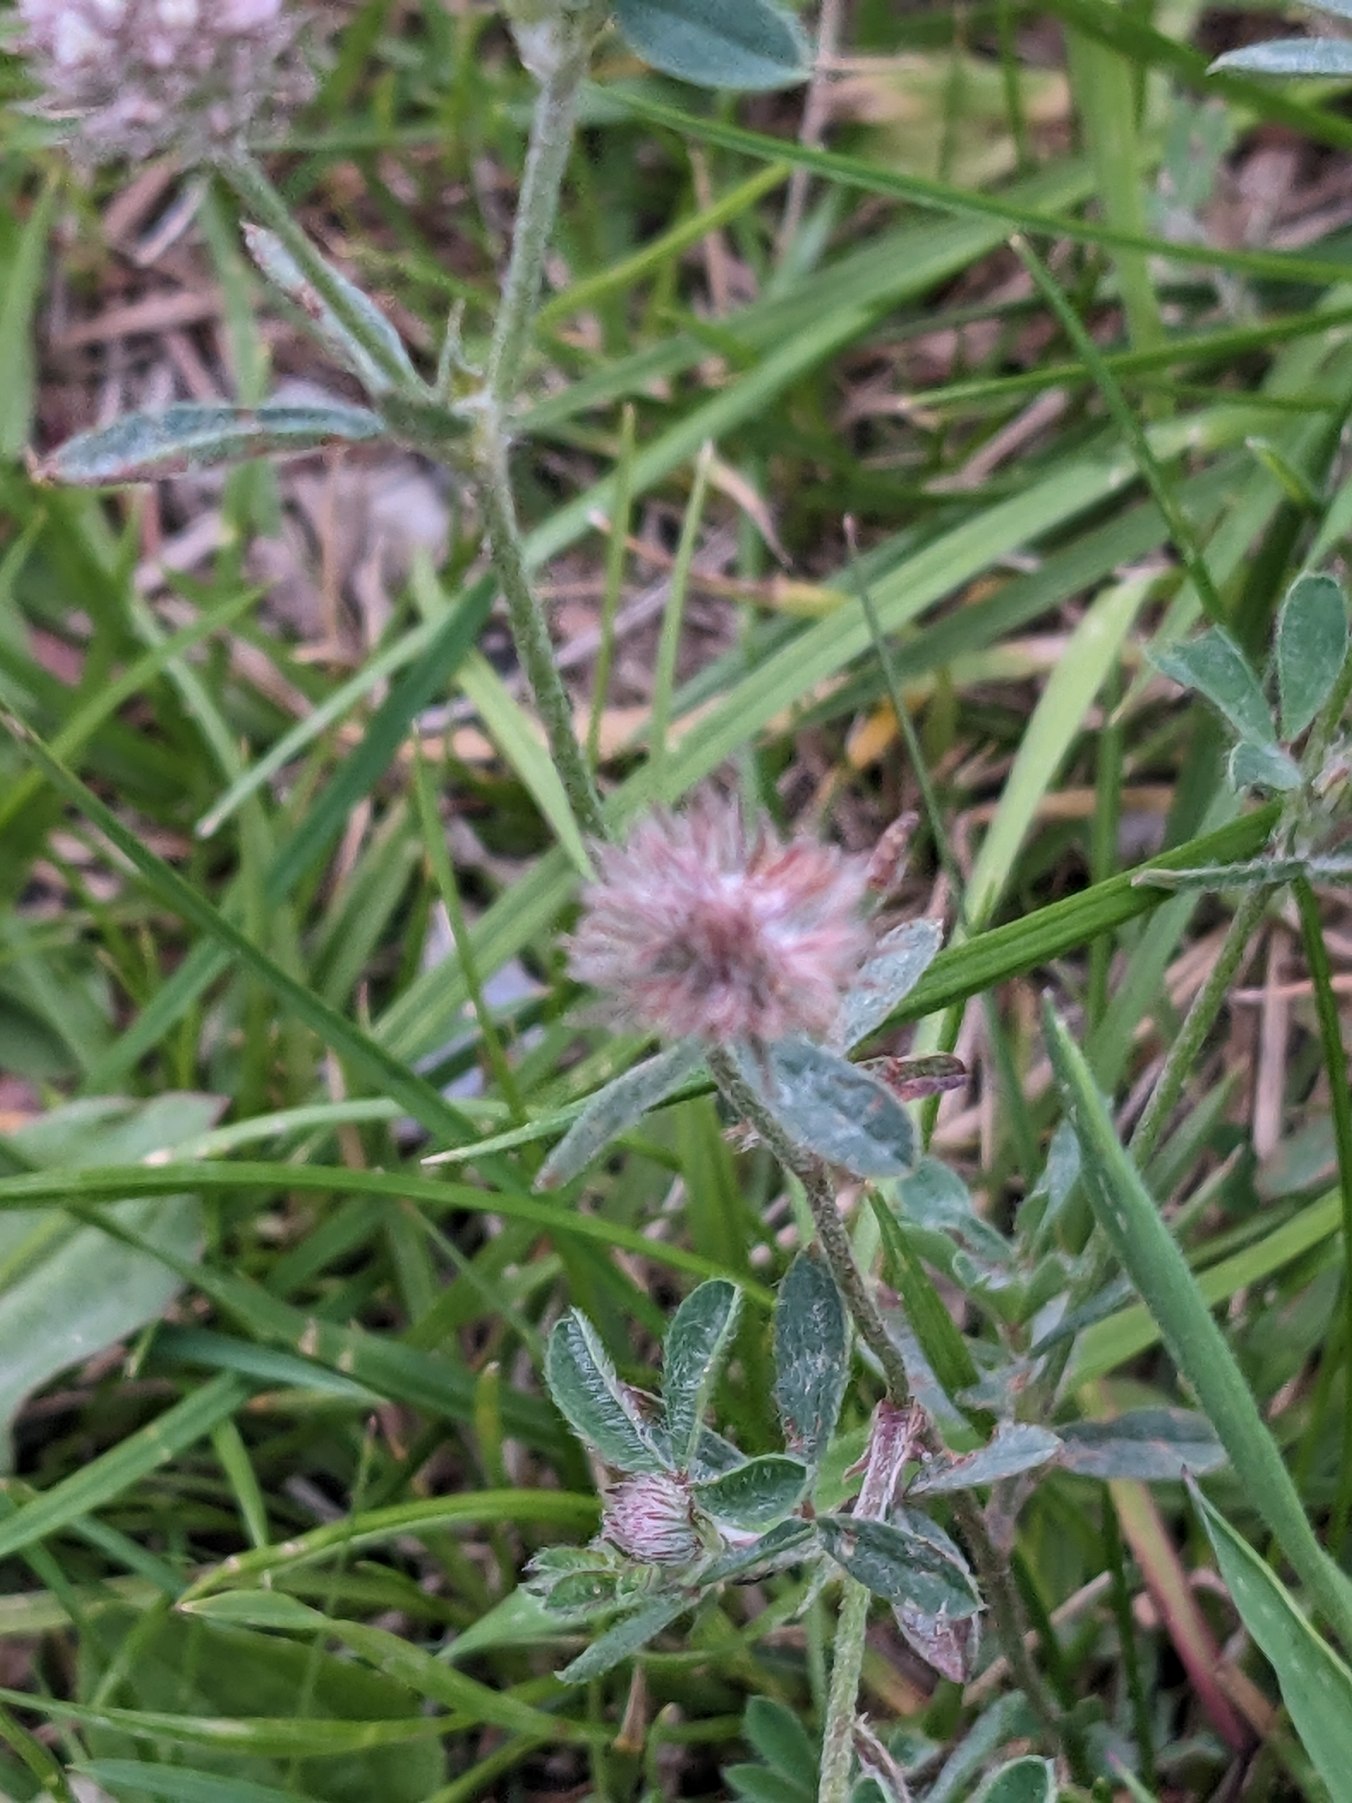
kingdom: Plantae
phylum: Tracheophyta
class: Magnoliopsida
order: Fabales
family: Fabaceae
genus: Trifolium
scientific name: Trifolium arvense
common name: Hare-kløver
